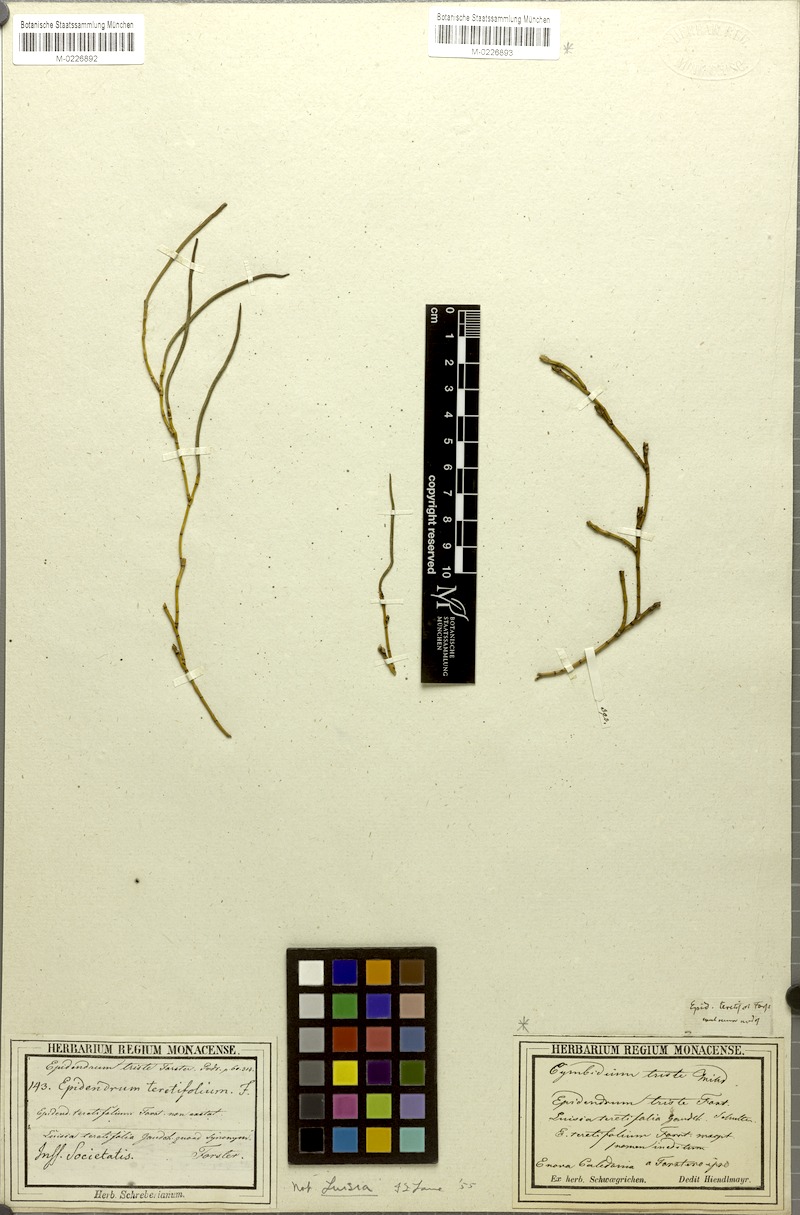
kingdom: Plantae
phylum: Tracheophyta
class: Liliopsida
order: Asparagales
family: Orchidaceae
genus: Luisia
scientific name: Luisia tristis
